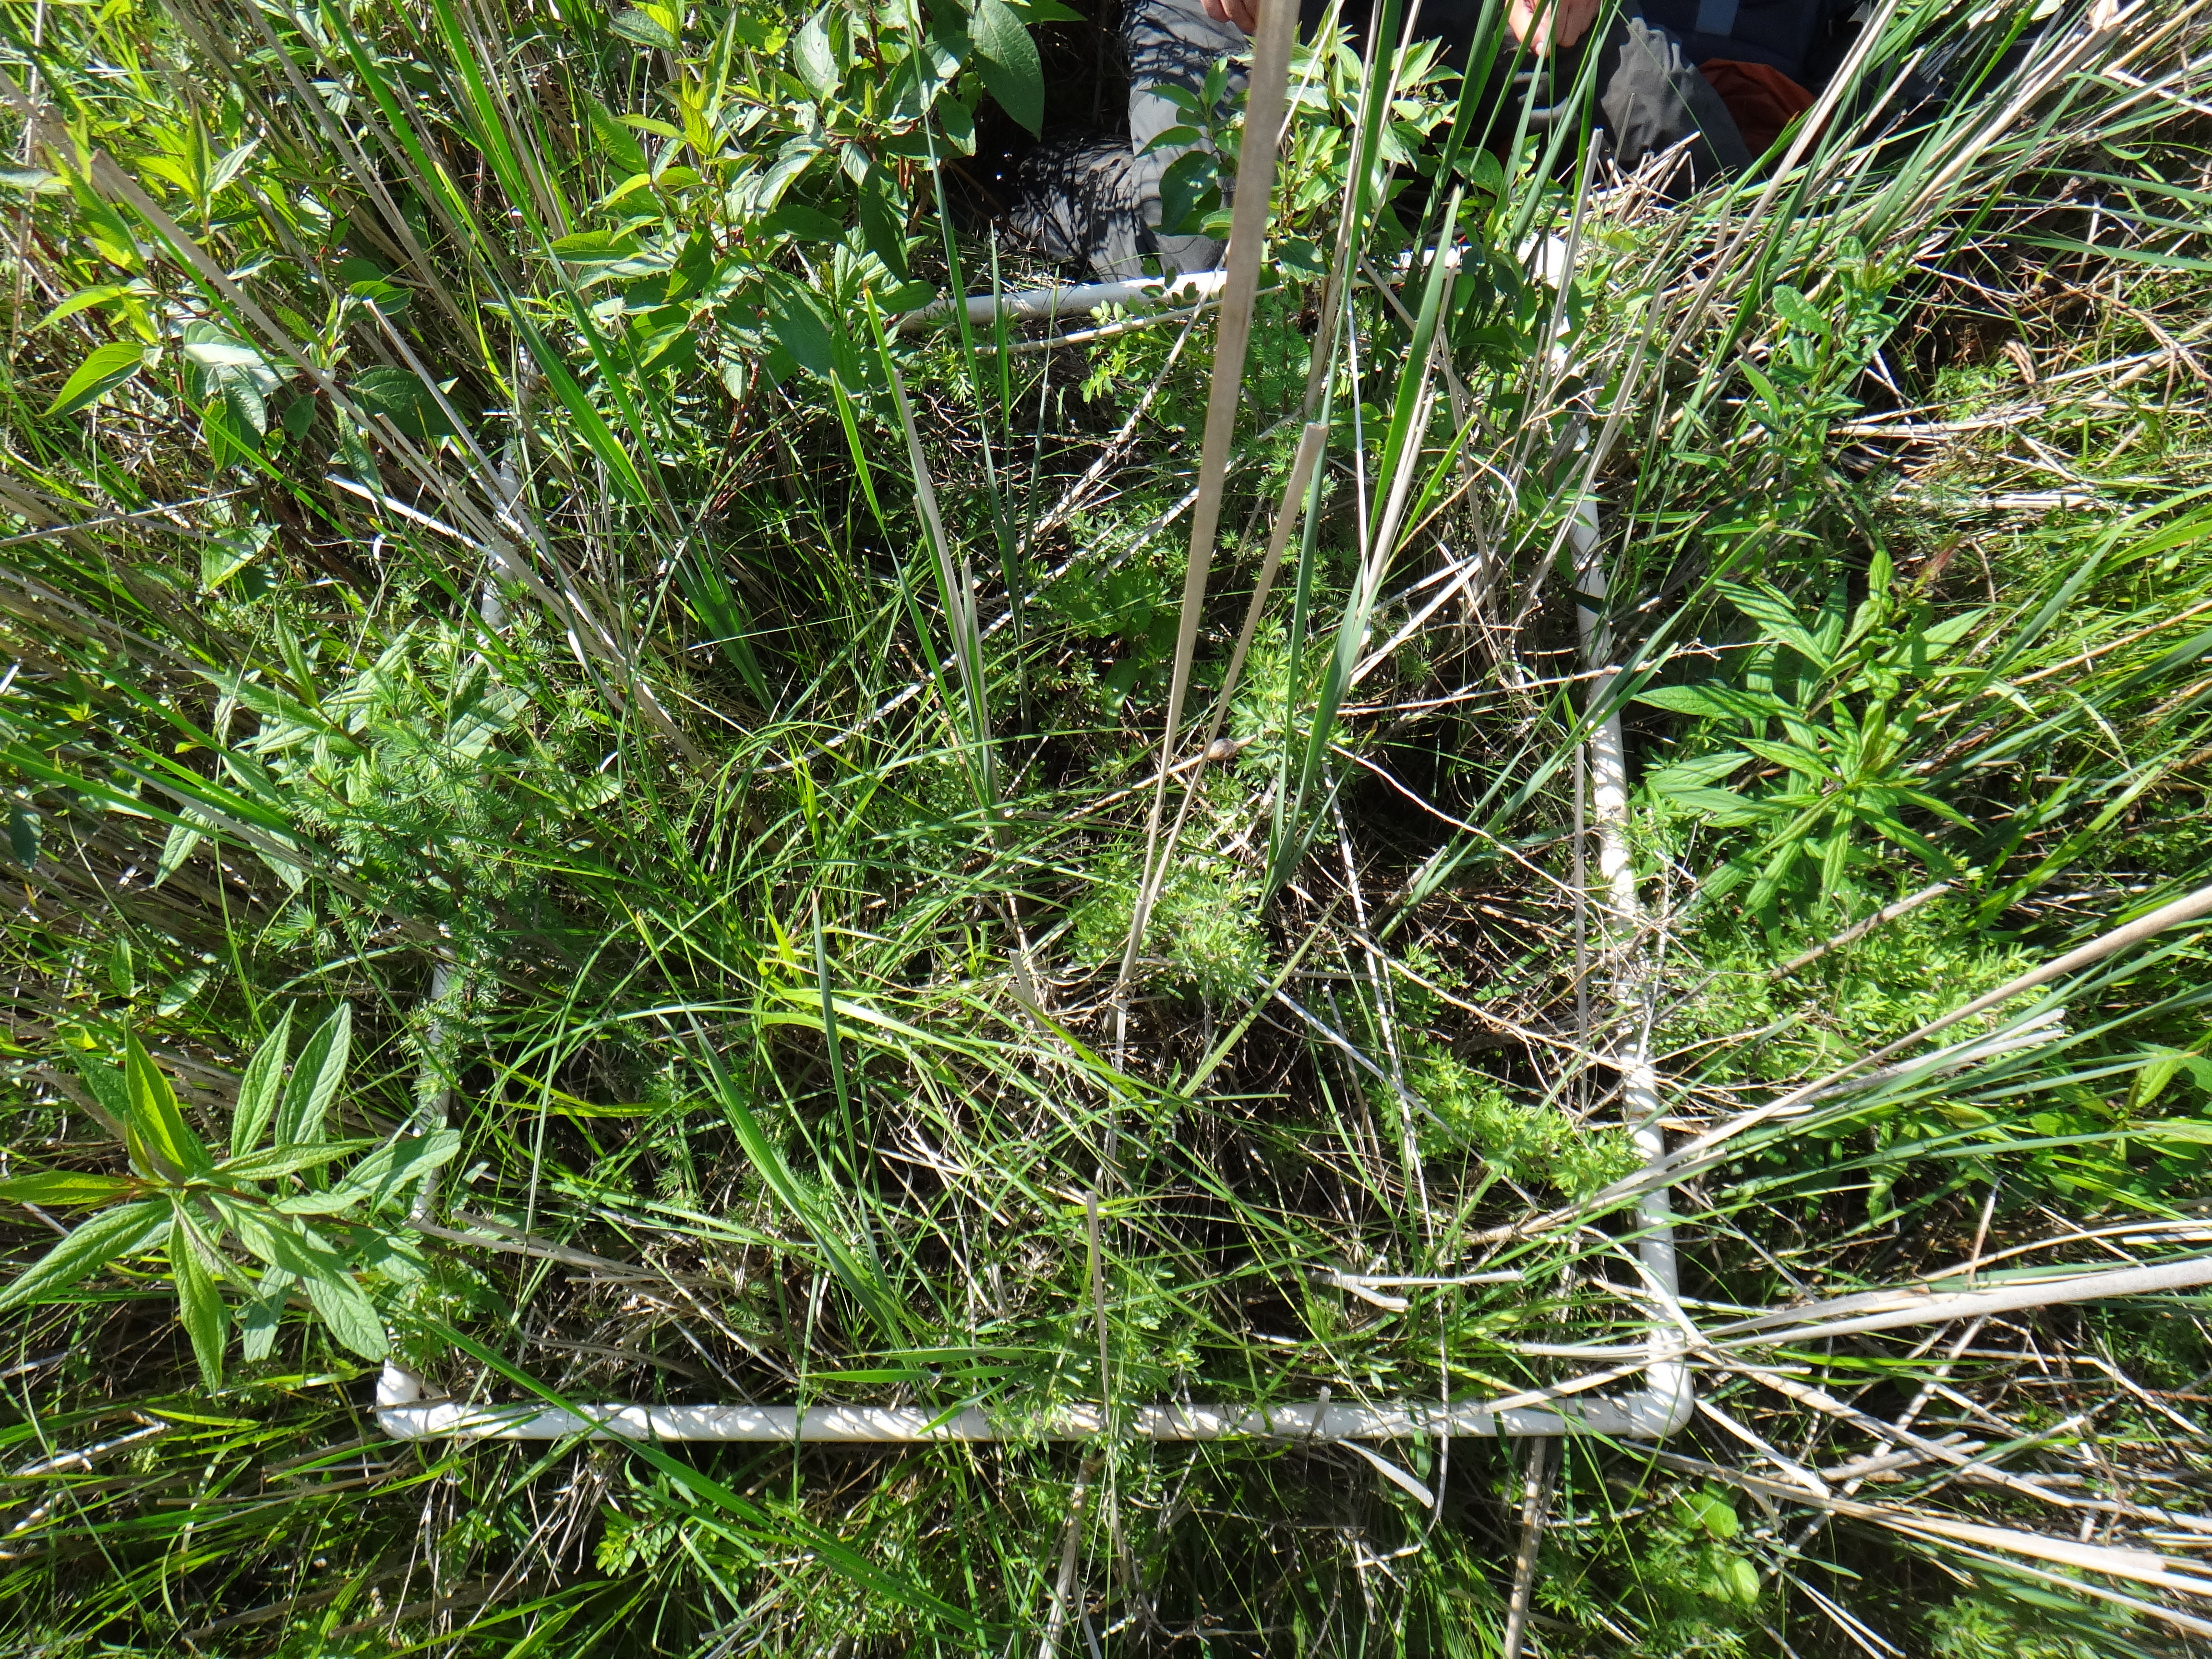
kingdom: Plantae
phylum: Tracheophyta
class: Liliopsida
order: Poales
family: Typhaceae
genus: Typha
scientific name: Typha latifolia
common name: Broadleaf cattail
